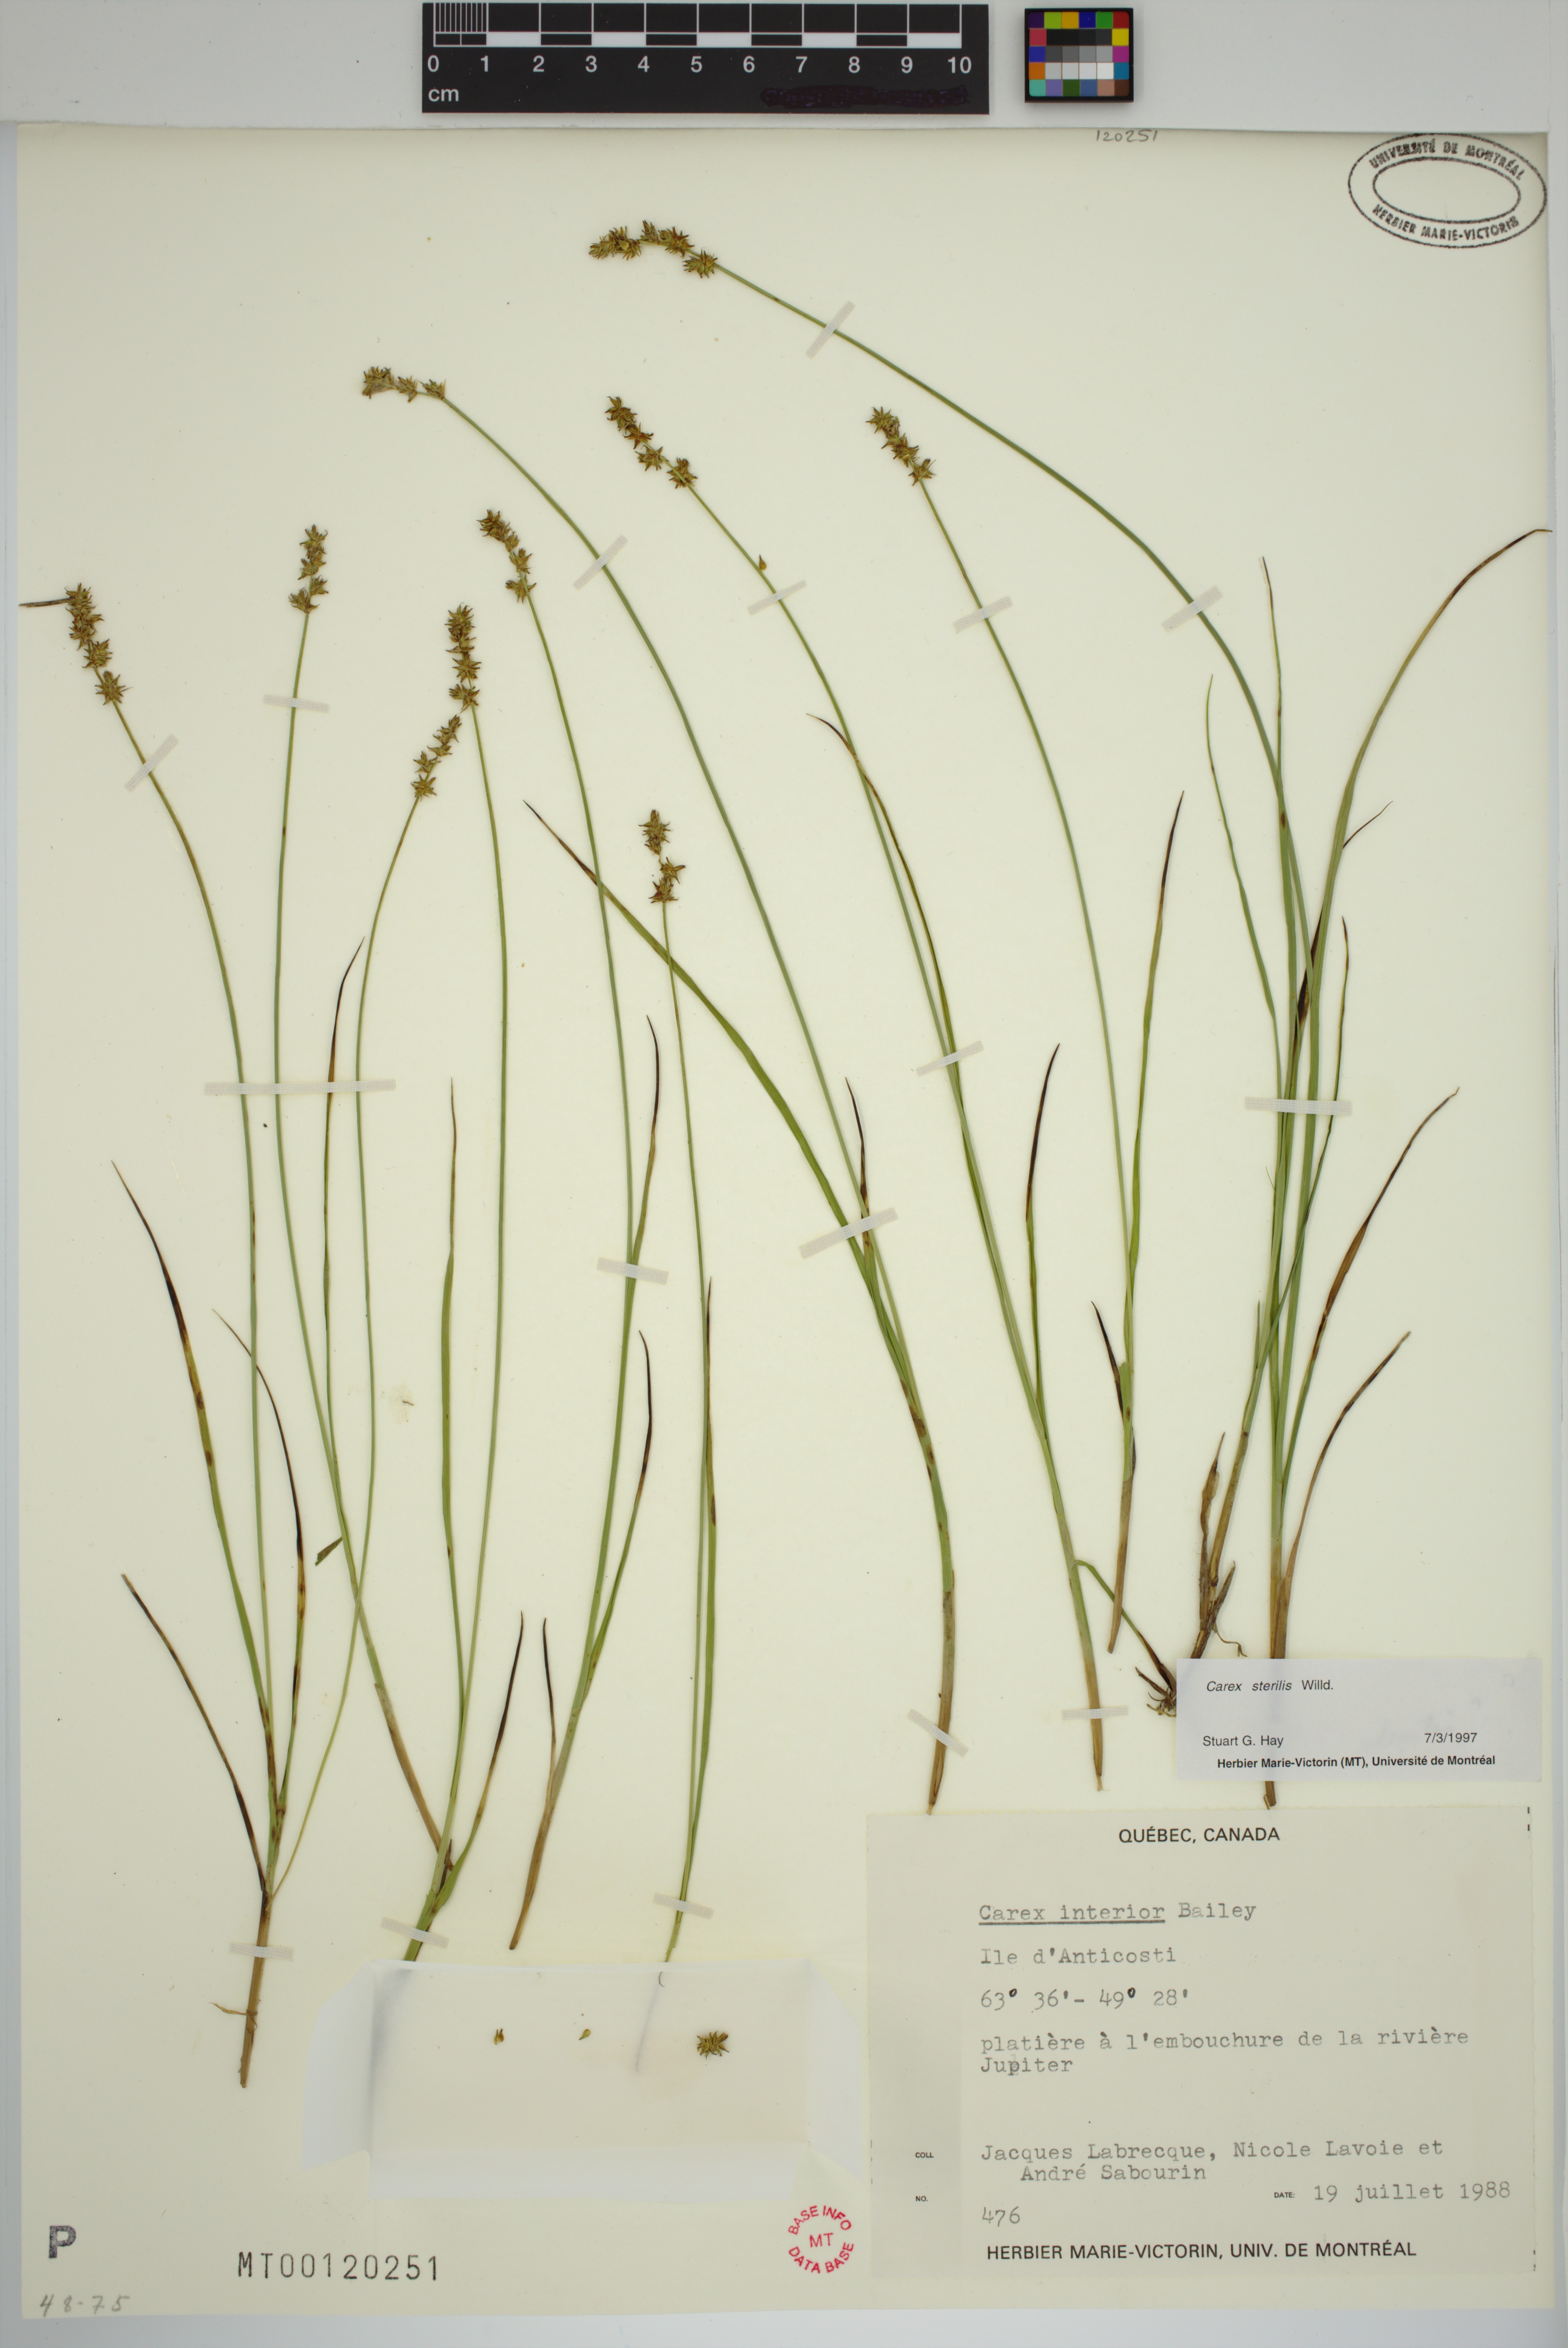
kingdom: Plantae
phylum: Tracheophyta
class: Liliopsida
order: Poales
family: Cyperaceae
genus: Carex
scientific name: Carex sterilis
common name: Dioecious sedge
